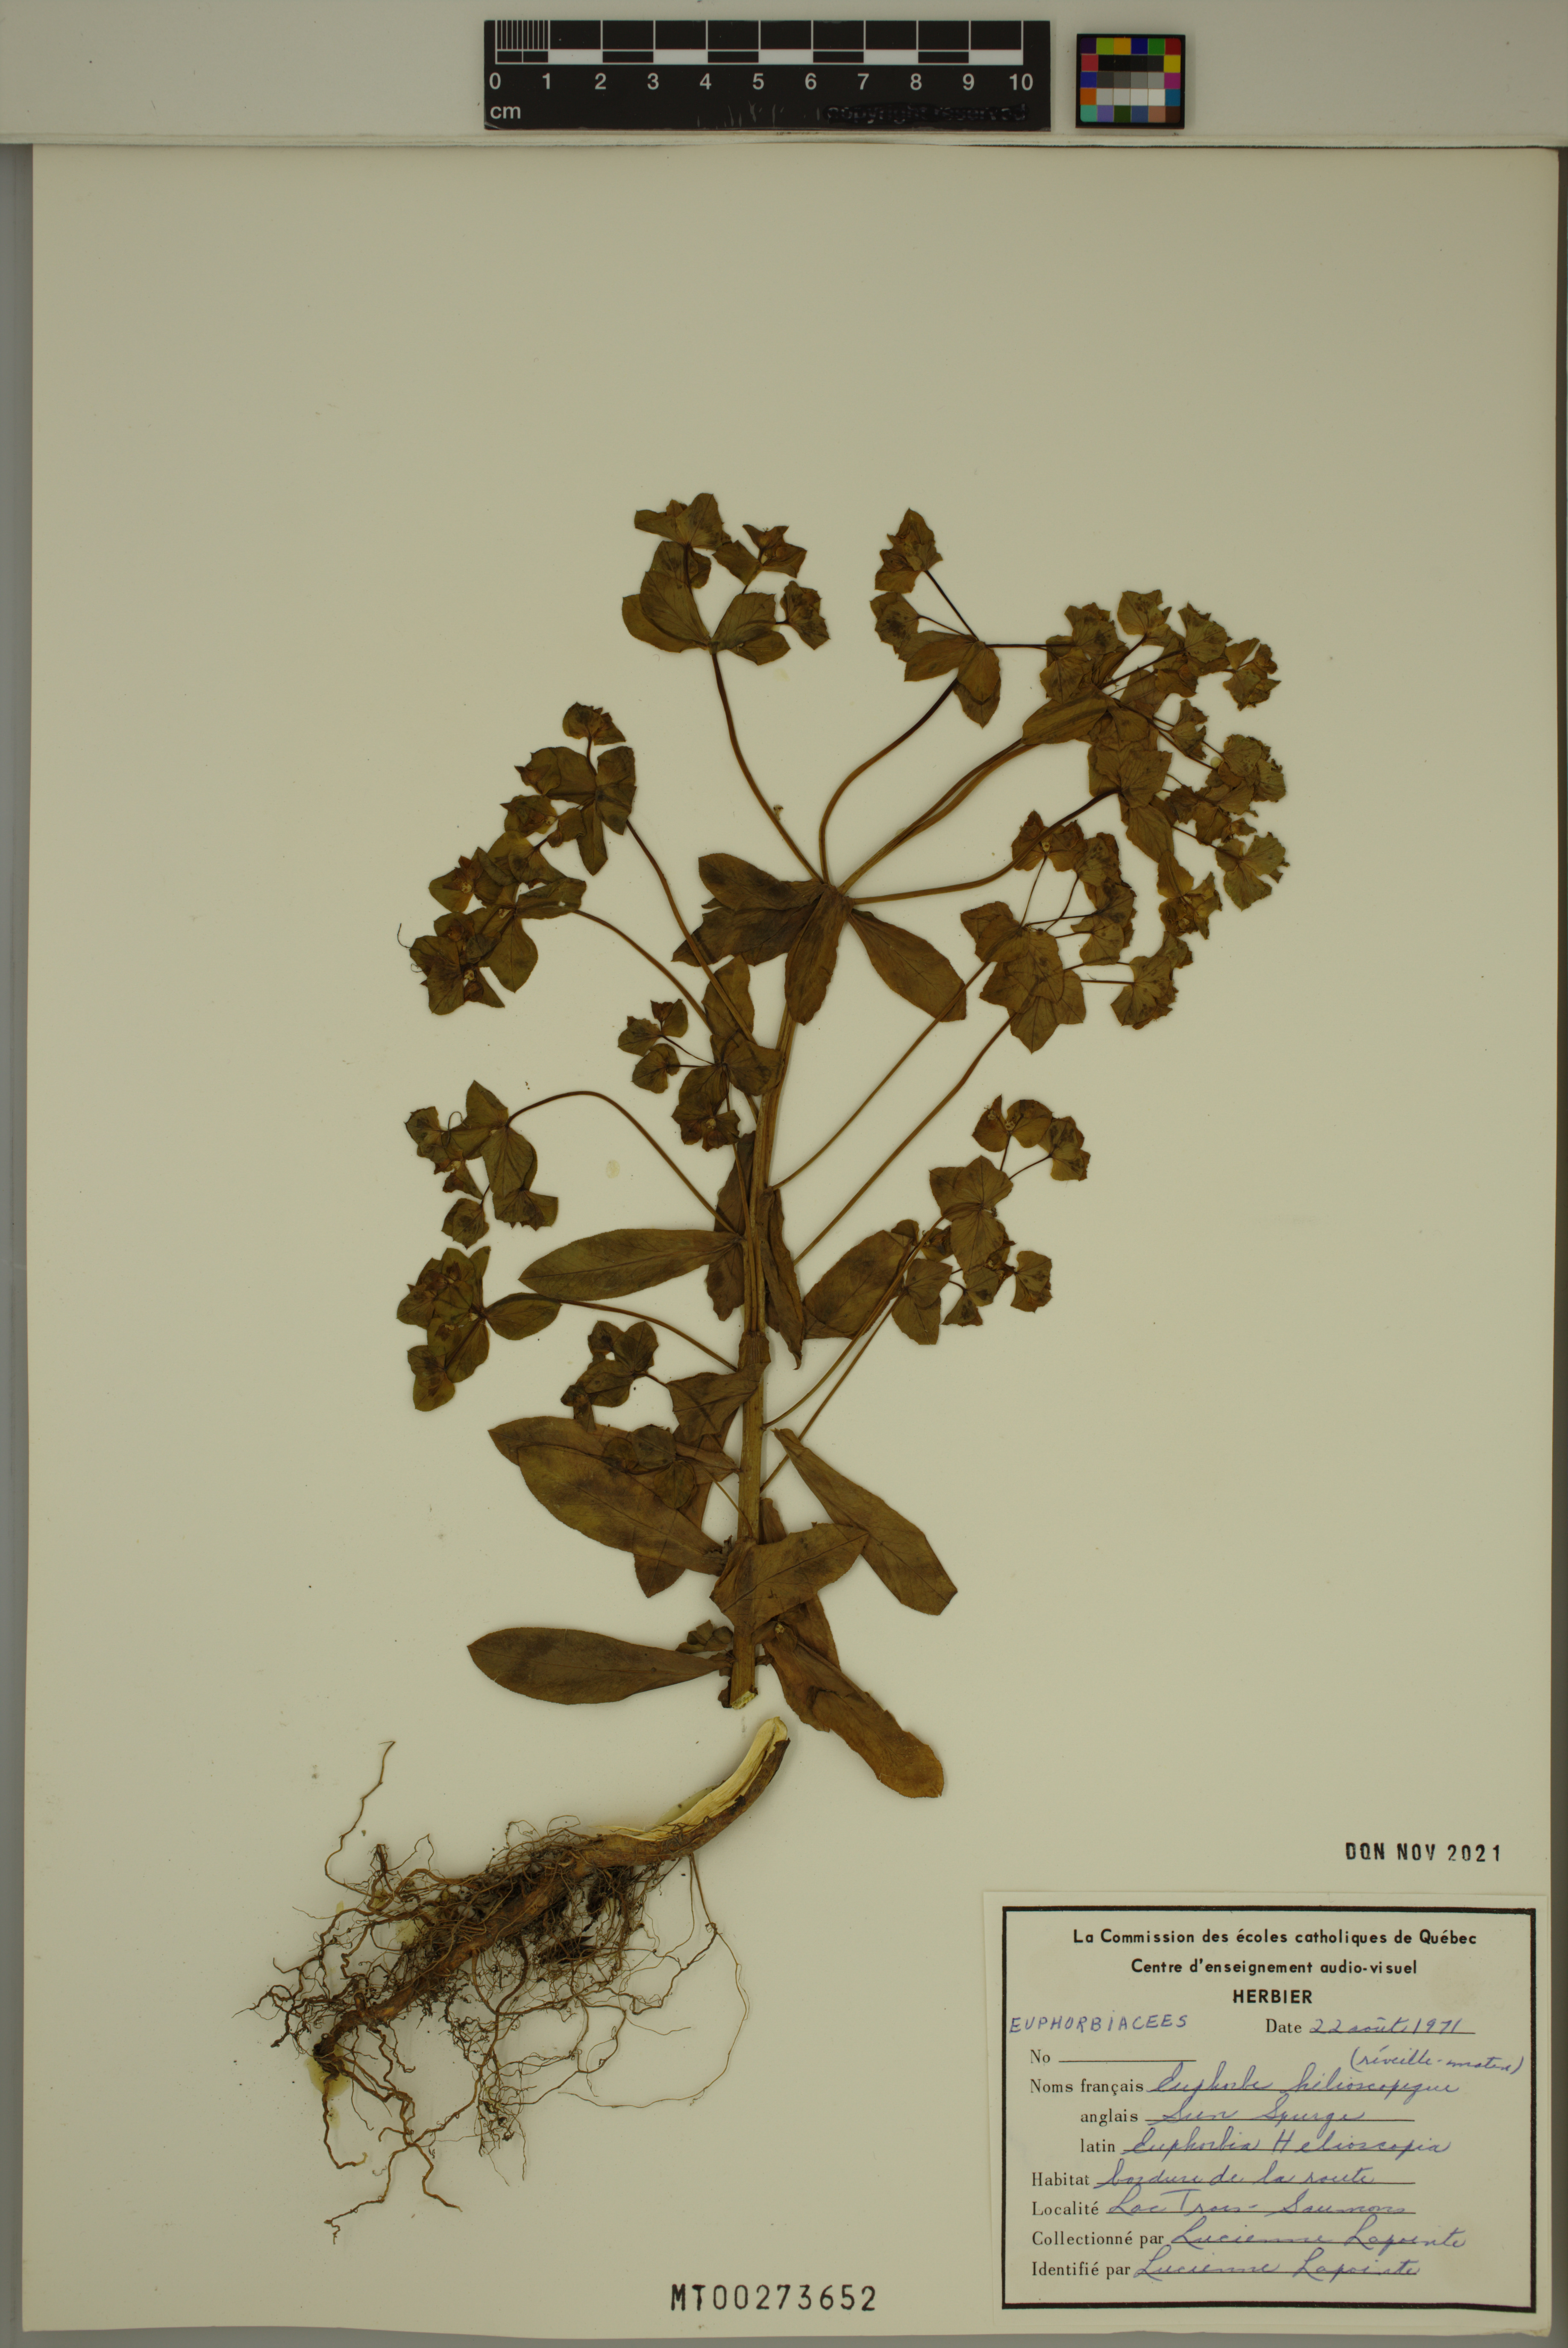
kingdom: Plantae
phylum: Tracheophyta
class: Magnoliopsida
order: Malpighiales
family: Euphorbiaceae
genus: Euphorbia
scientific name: Euphorbia helioscopia
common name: Sun spurge
